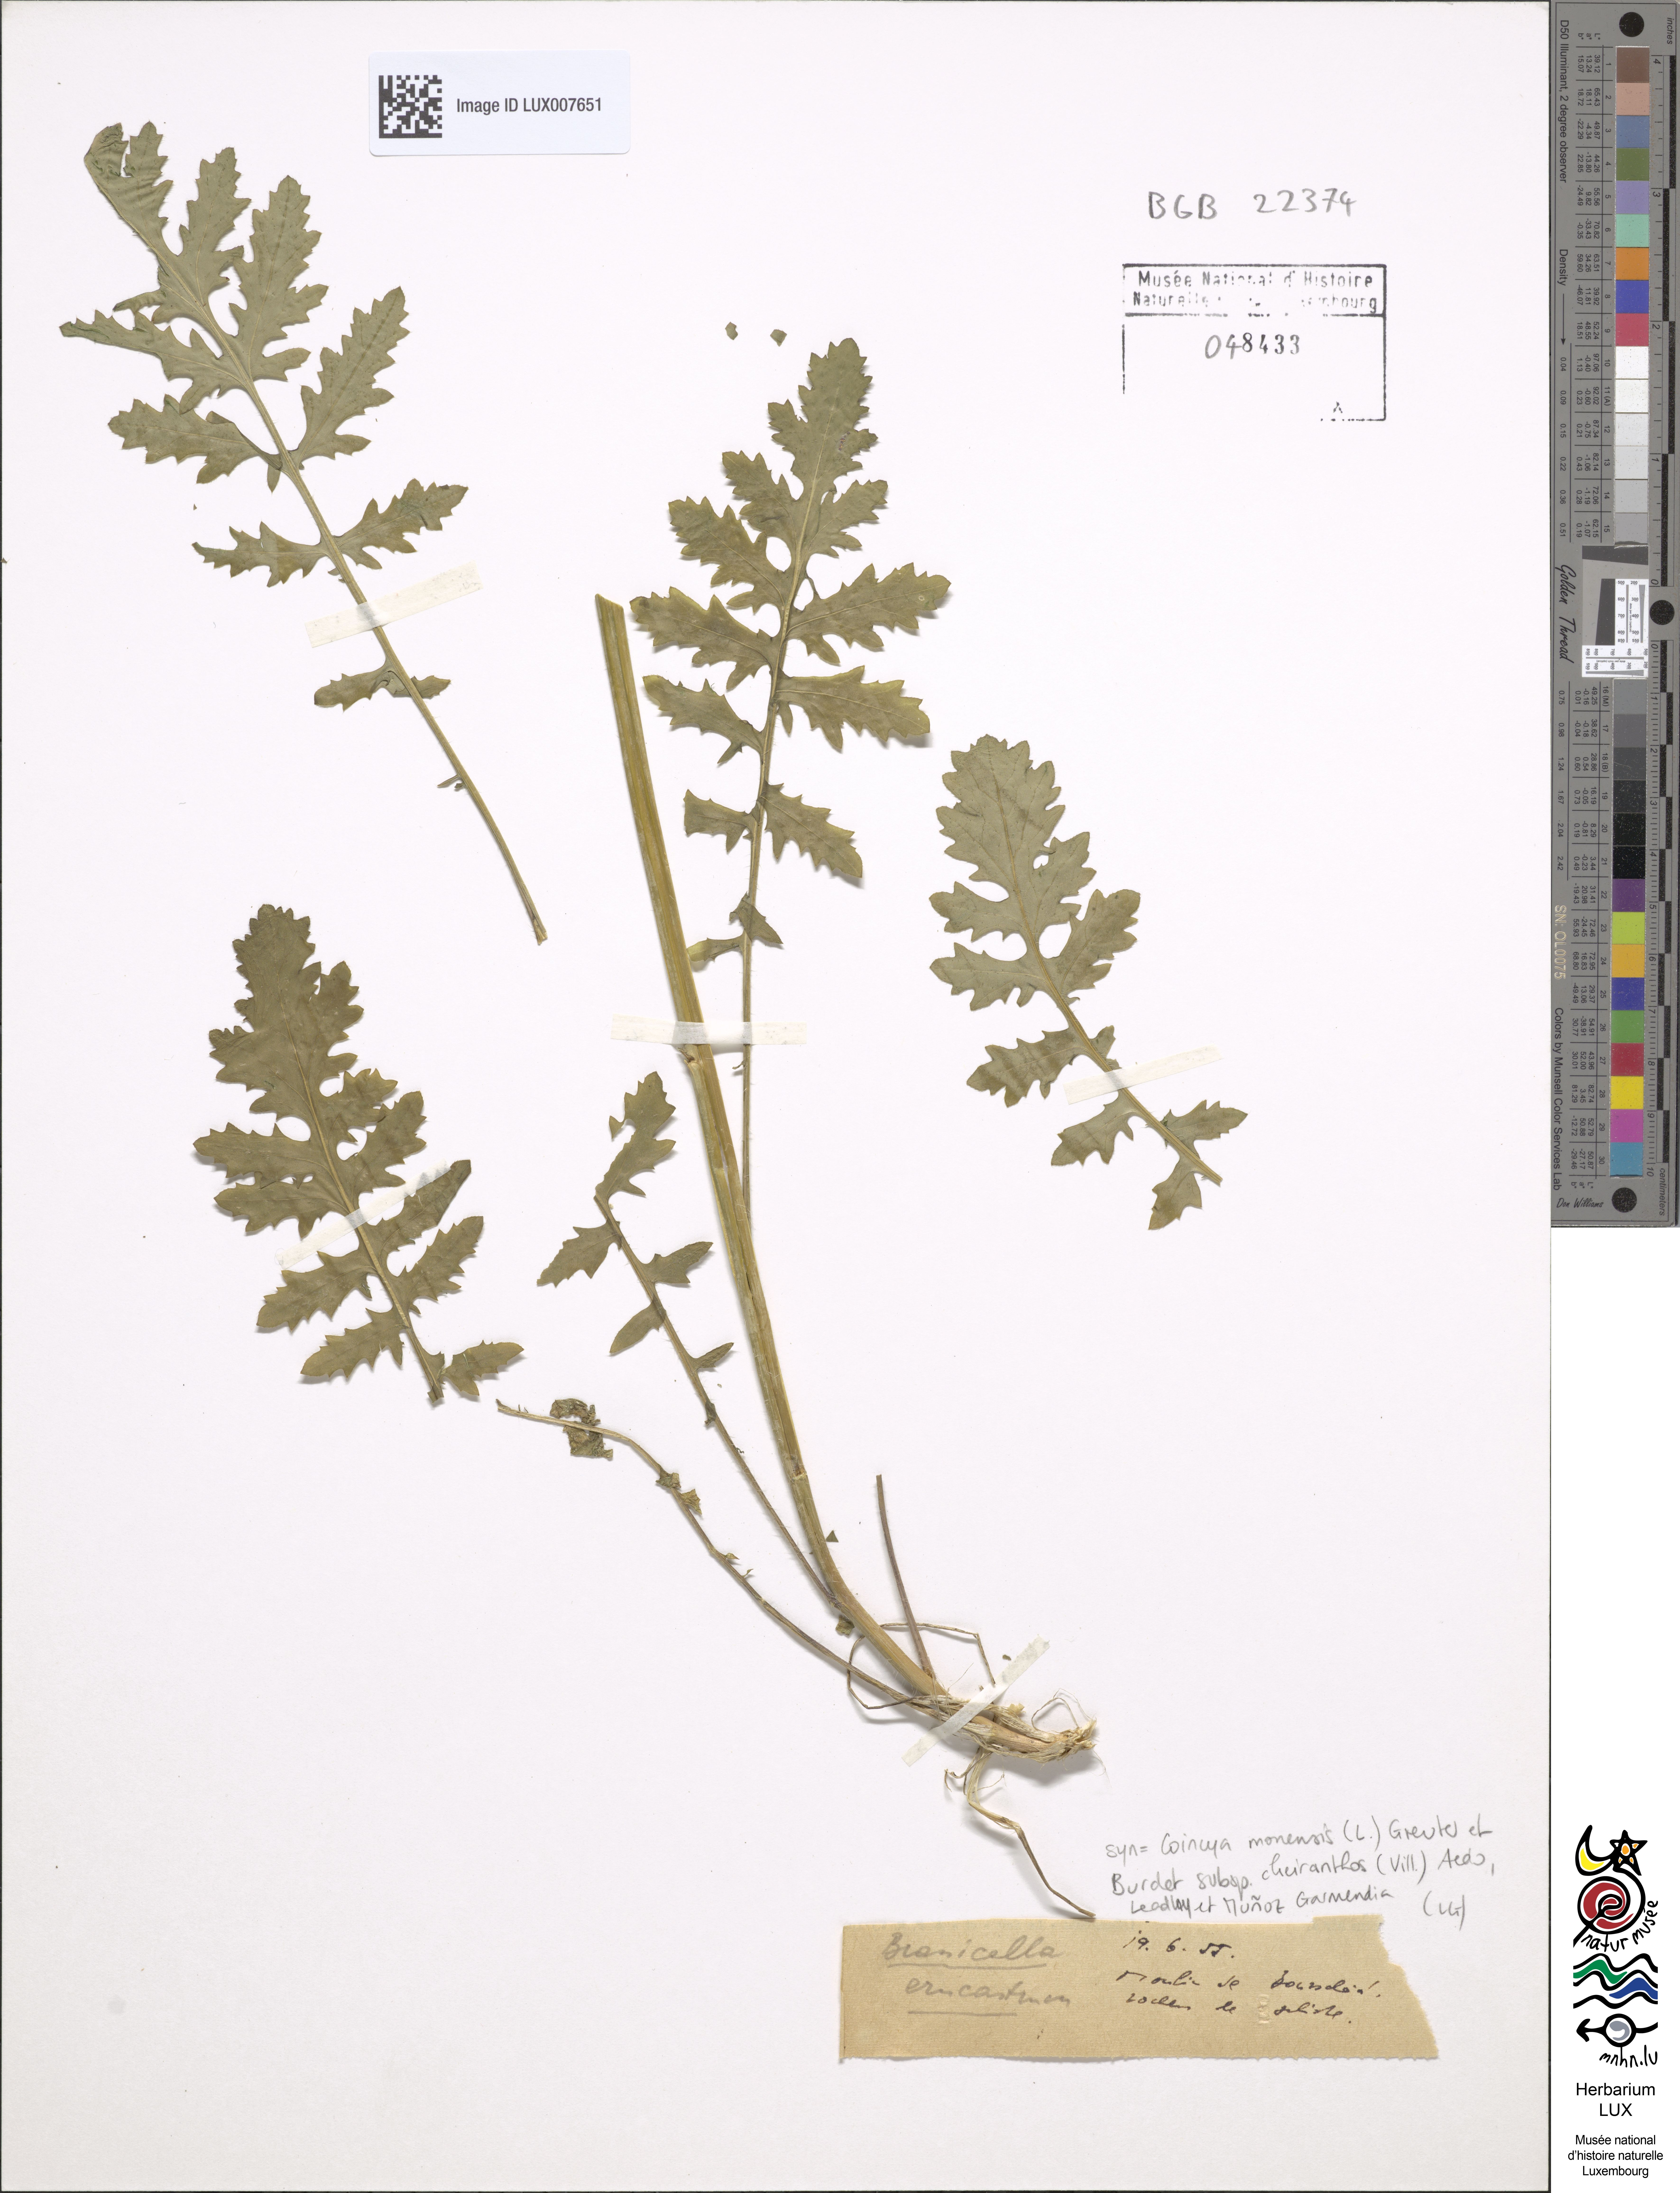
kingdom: Plantae
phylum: Tracheophyta
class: Magnoliopsida
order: Brassicales
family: Brassicaceae
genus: Erucastrum
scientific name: Erucastrum nasturtiifolium
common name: Watercress-leaf rocket
